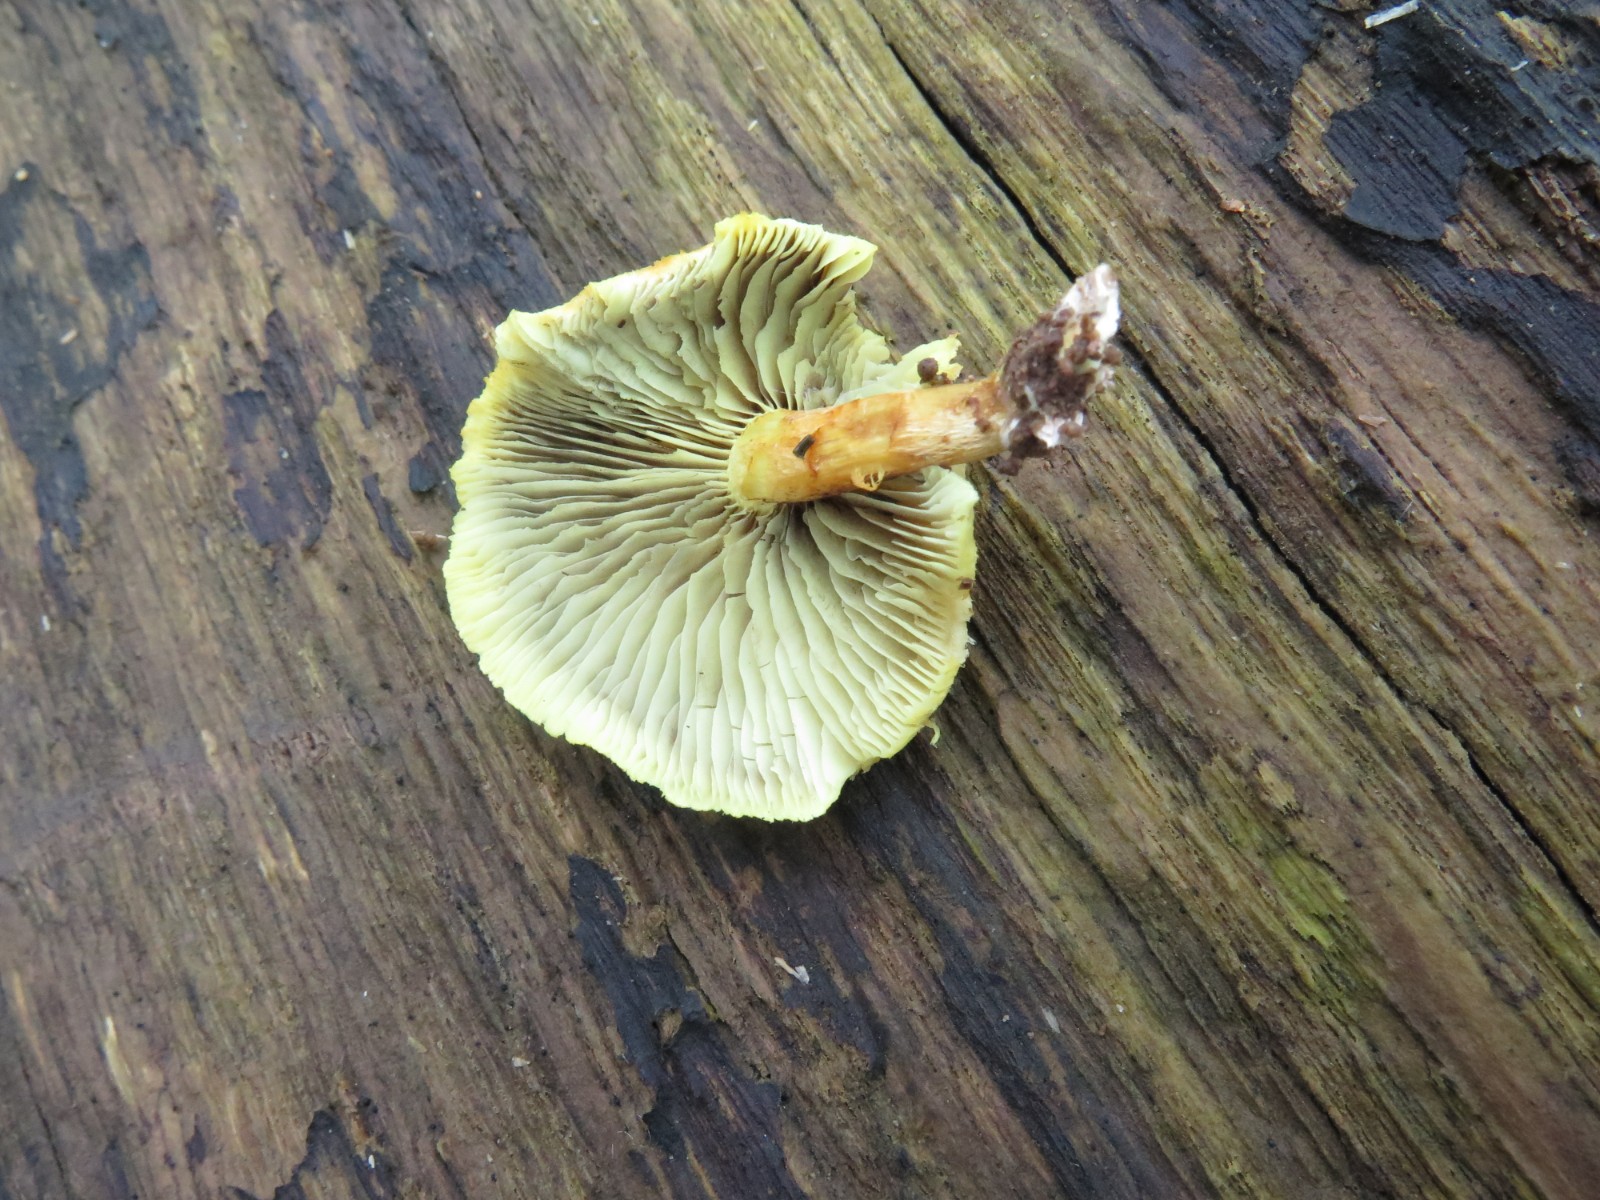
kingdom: Fungi
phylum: Basidiomycota
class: Agaricomycetes
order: Agaricales
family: Strophariaceae
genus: Hypholoma
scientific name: Hypholoma fasciculare
